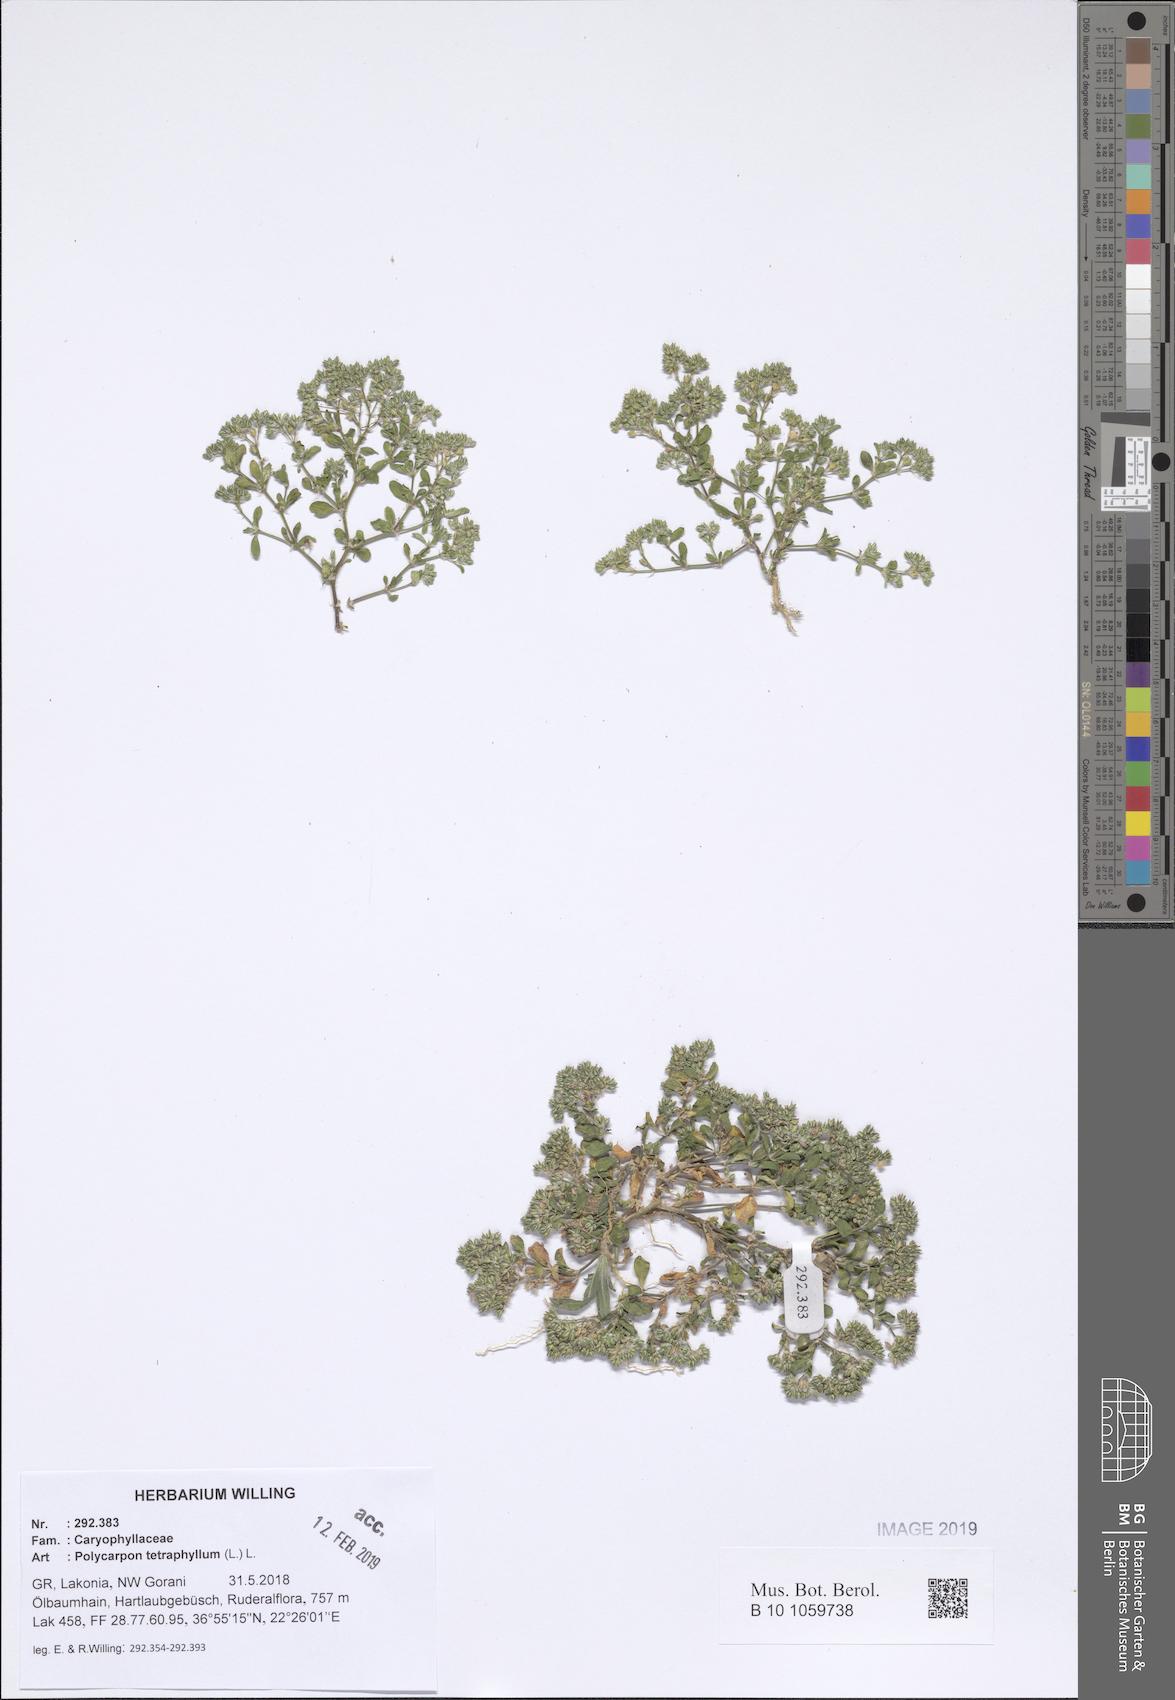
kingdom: Plantae
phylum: Tracheophyta
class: Magnoliopsida
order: Caryophyllales
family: Caryophyllaceae
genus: Polycarpon
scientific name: Polycarpon tetraphyllum
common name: Four-leaved all-seed
